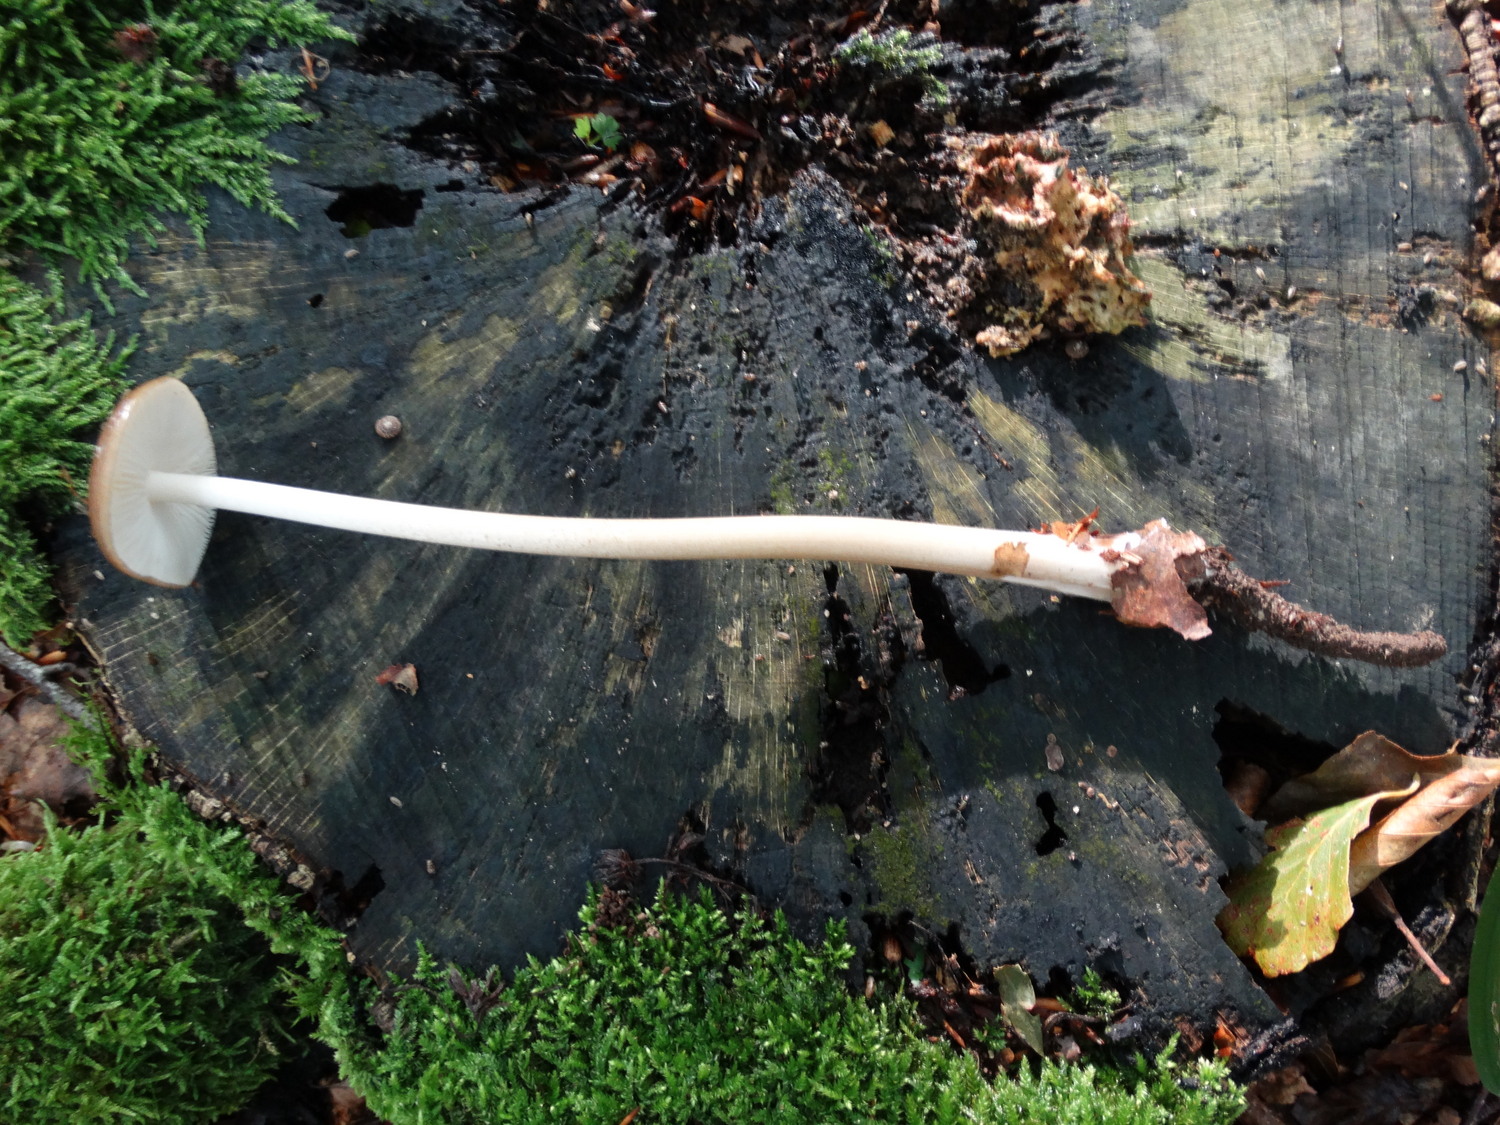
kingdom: Fungi
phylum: Basidiomycota
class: Agaricomycetes
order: Agaricales
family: Physalacriaceae
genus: Hymenopellis
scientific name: Hymenopellis radicata
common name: almindelig pælerodshat
